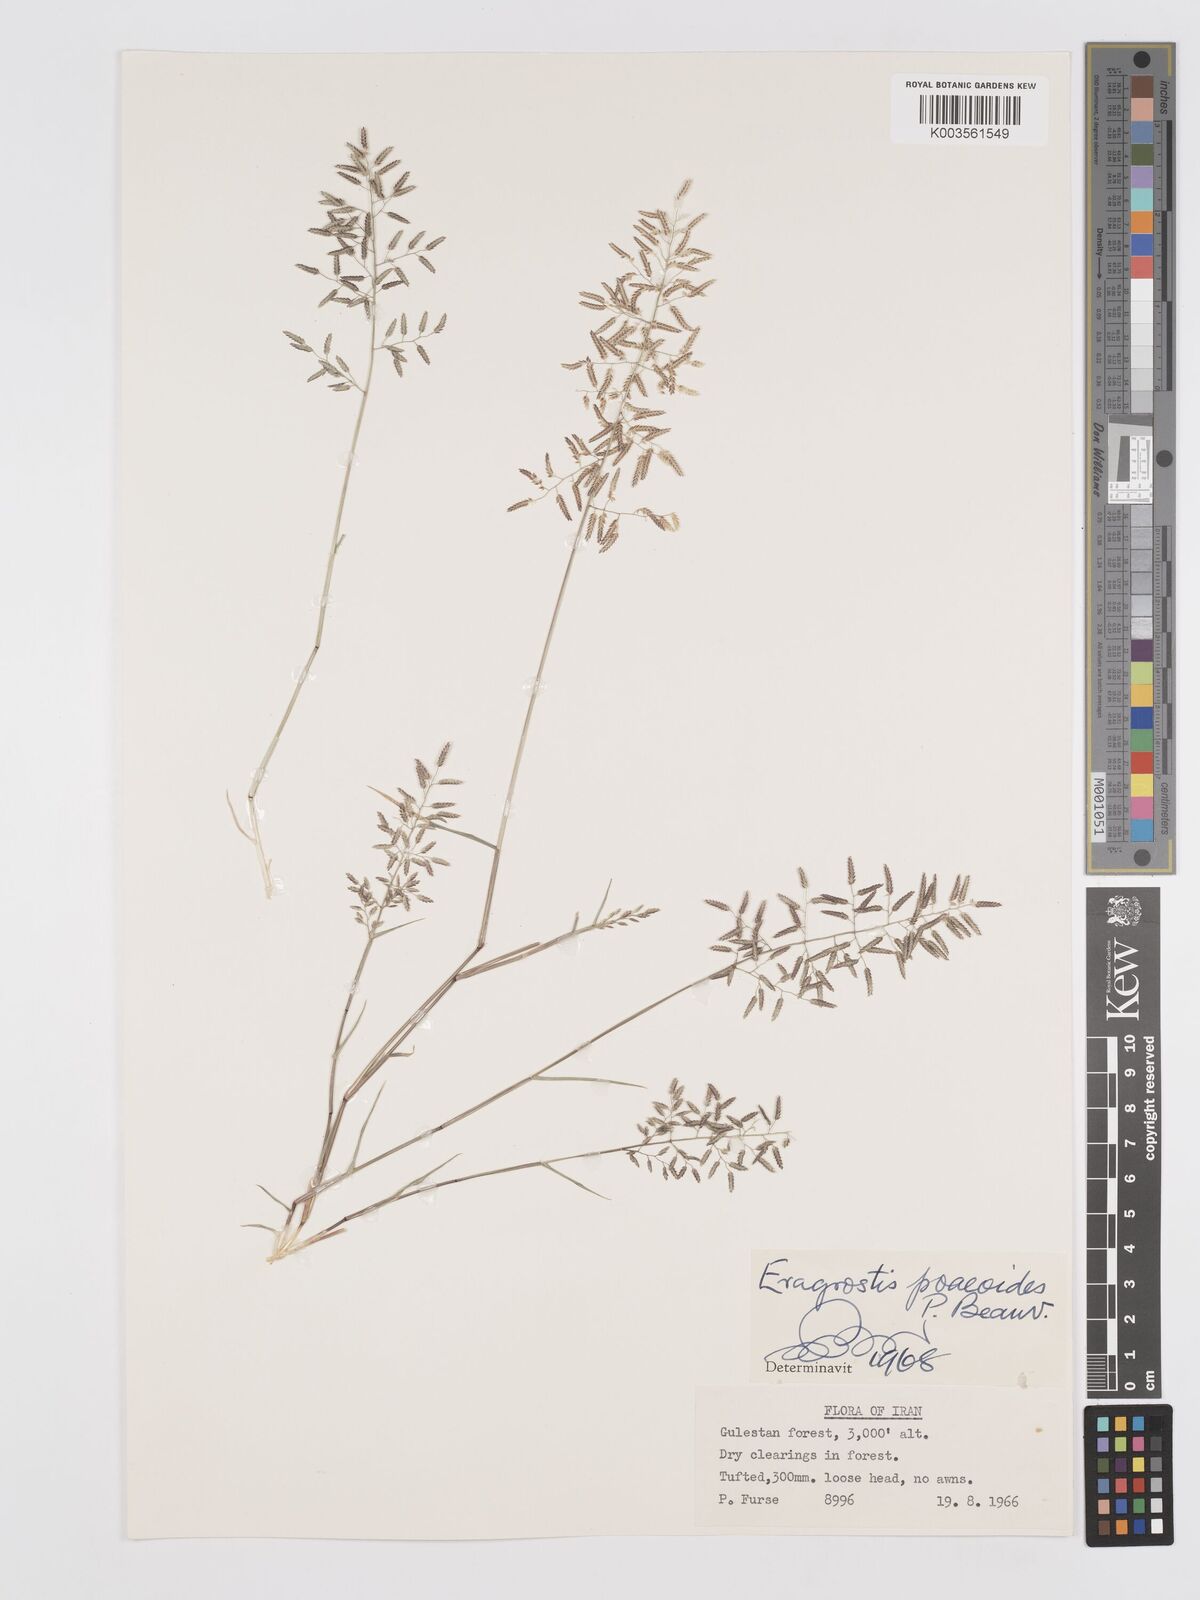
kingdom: Plantae
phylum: Tracheophyta
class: Liliopsida
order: Poales
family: Poaceae
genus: Eragrostis
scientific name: Eragrostis minor
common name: Small love-grass
